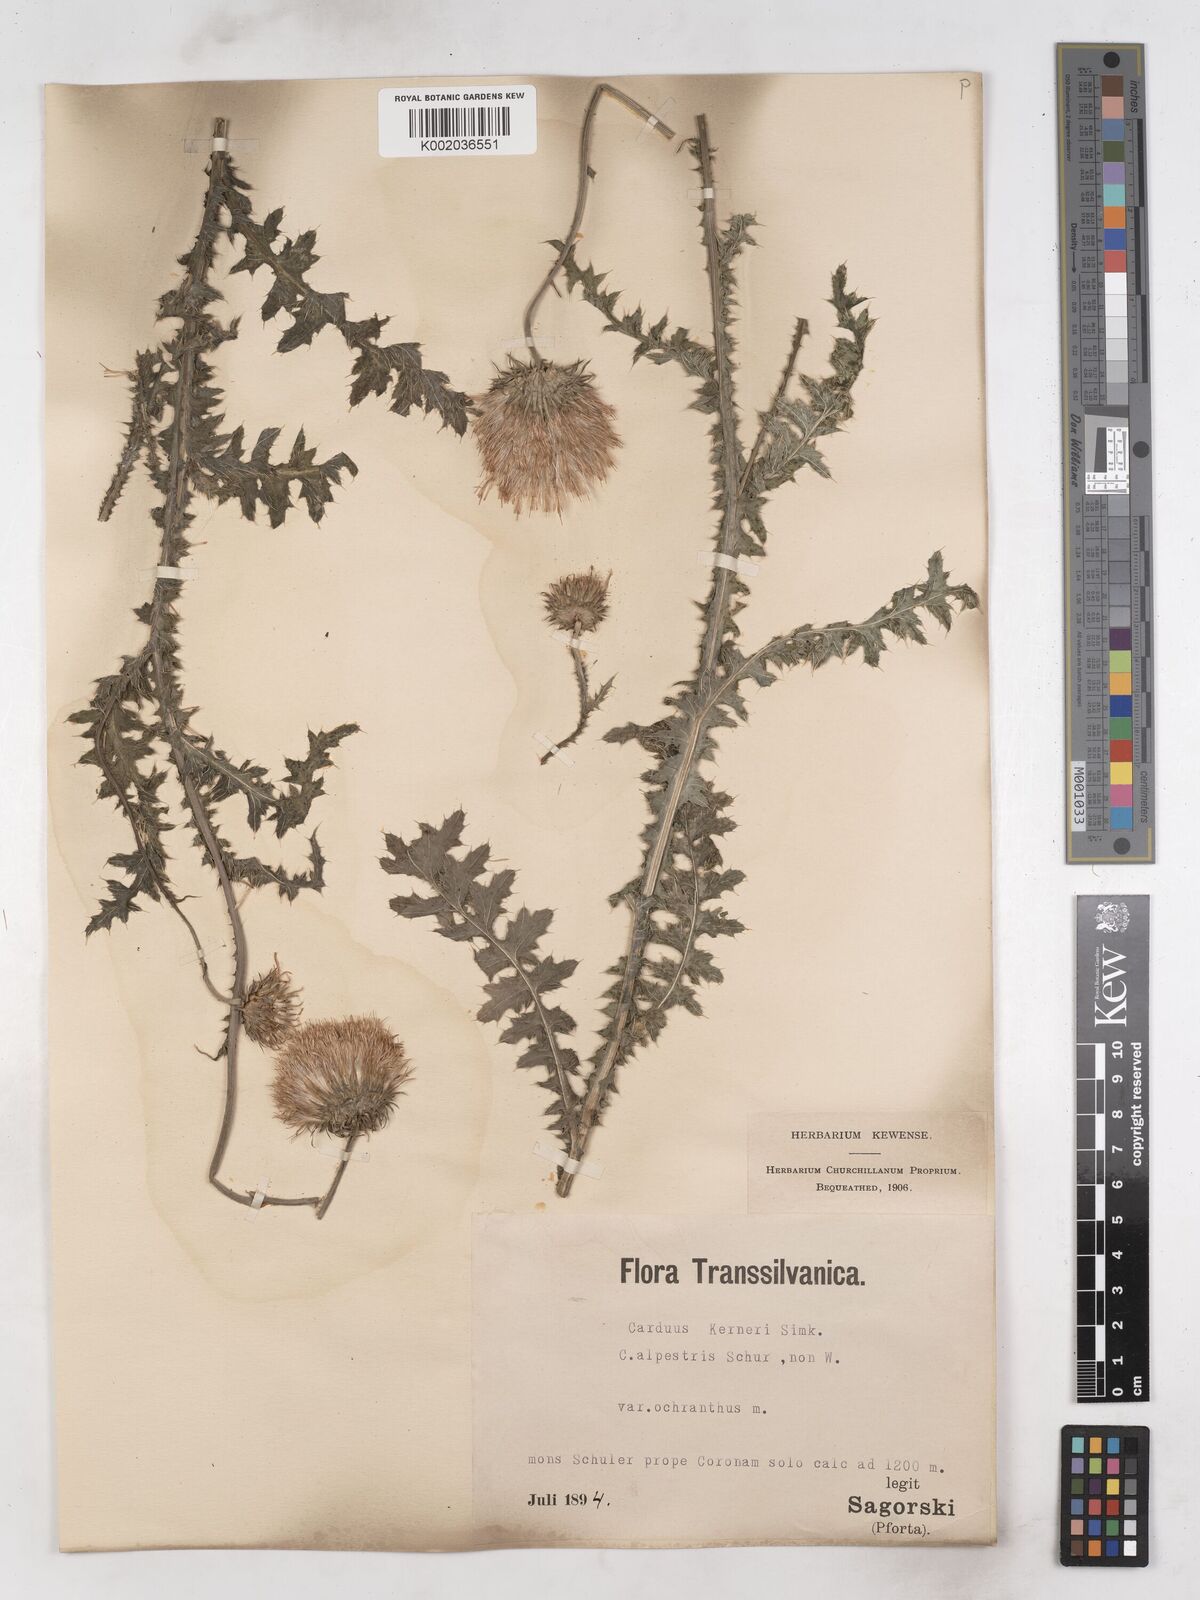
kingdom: Plantae
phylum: Tracheophyta
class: Magnoliopsida
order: Asterales
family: Asteraceae
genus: Carduus
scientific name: Carduus kerneri
